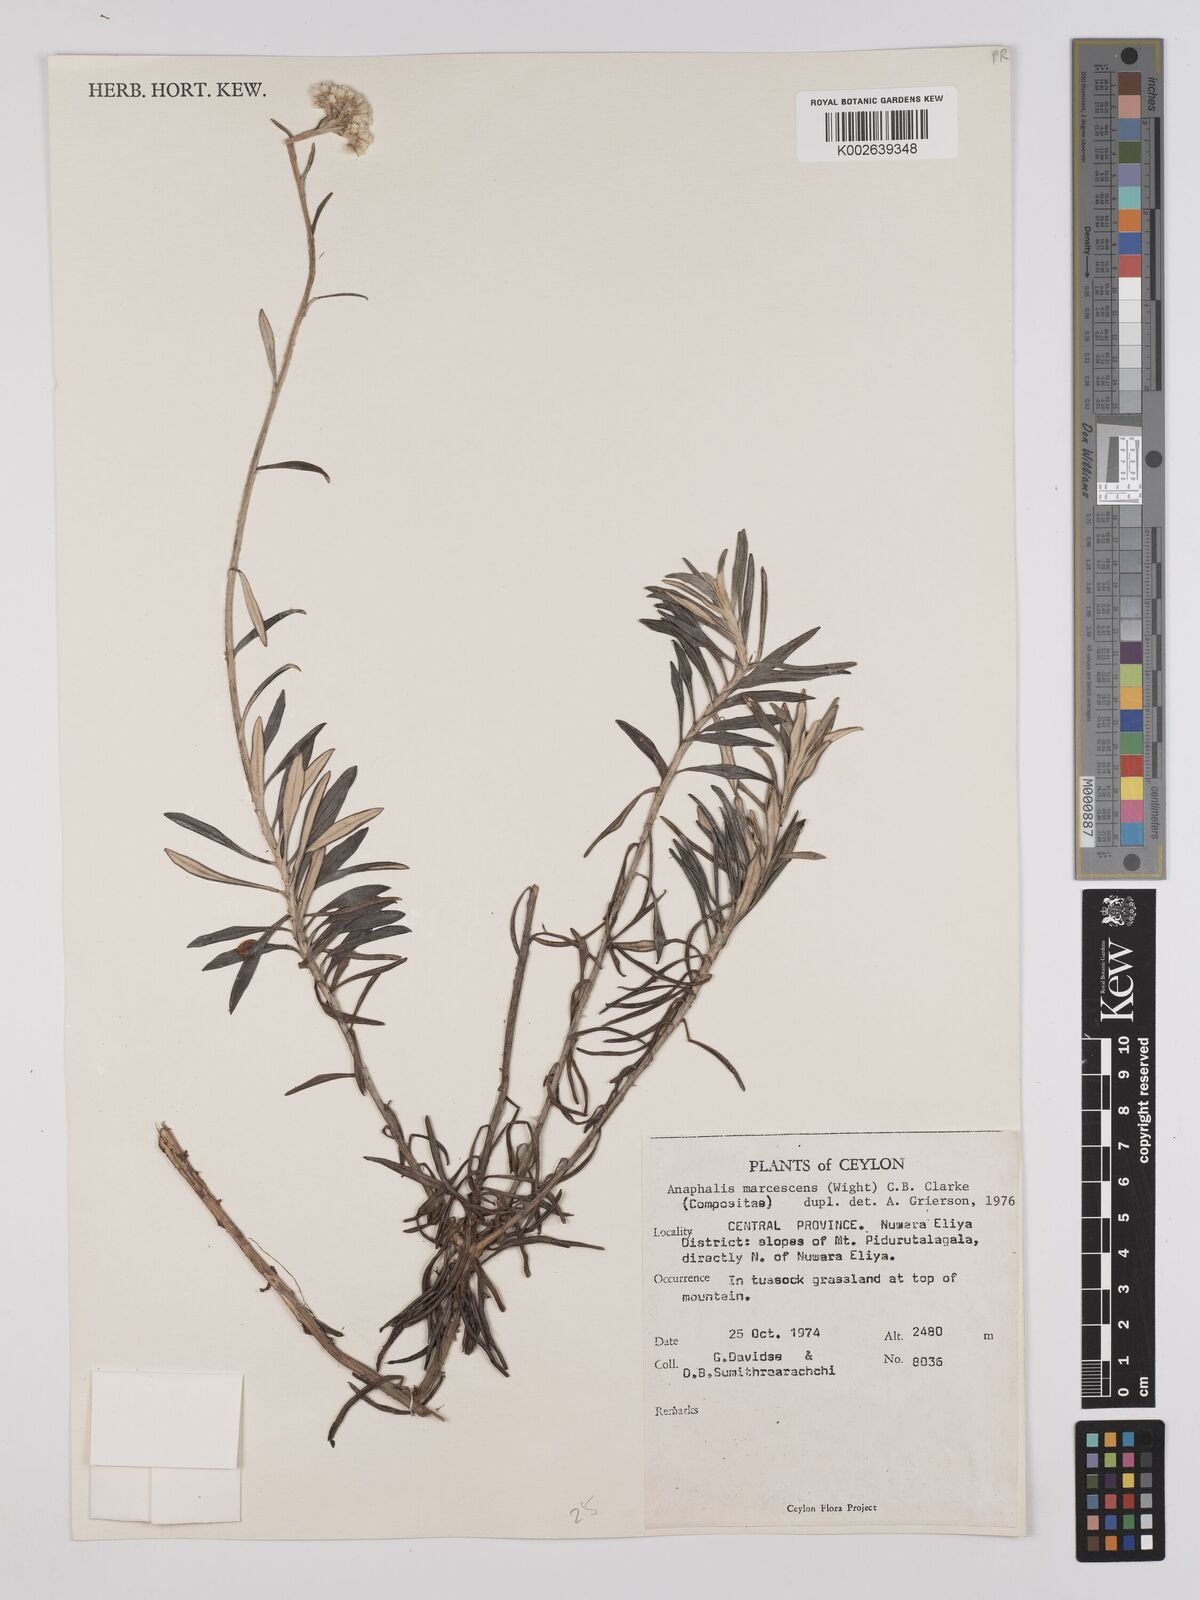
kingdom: Plantae
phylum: Tracheophyta
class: Magnoliopsida
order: Asterales
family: Asteraceae
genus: Anaphalis
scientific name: Anaphalis marcescens
